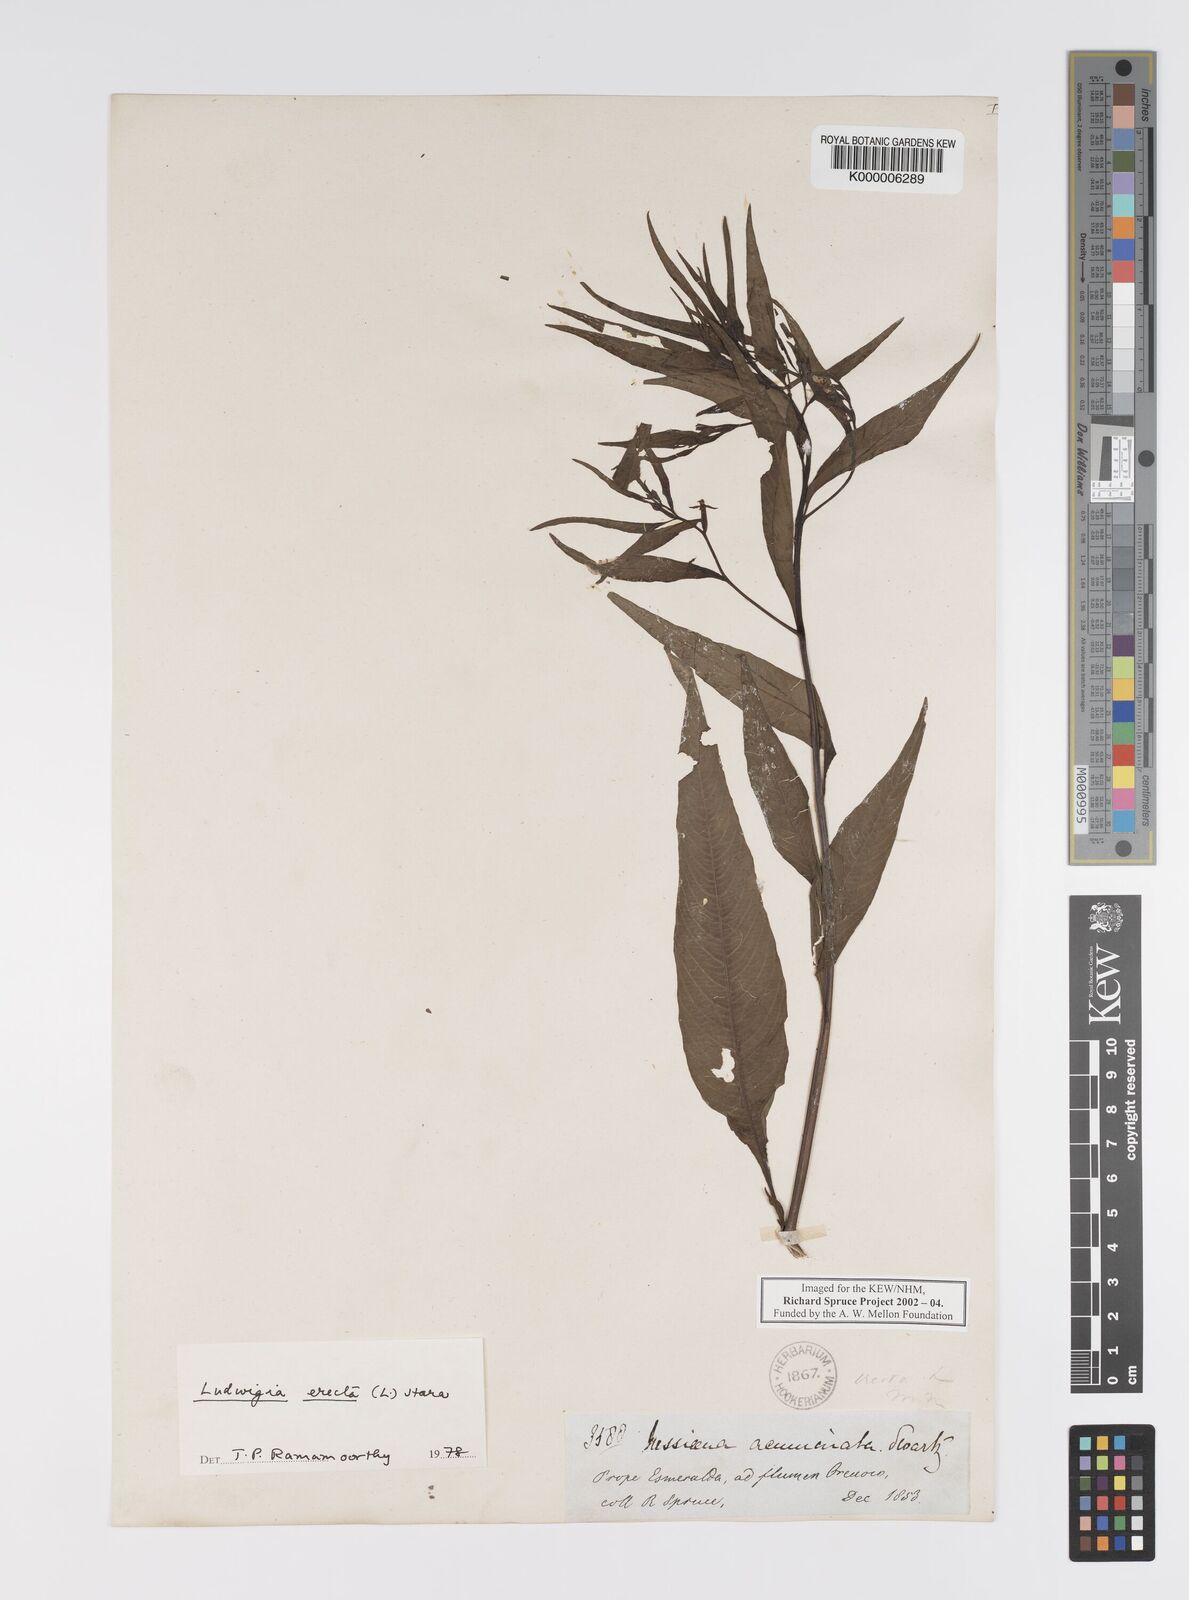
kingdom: Plantae
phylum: Tracheophyta
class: Magnoliopsida
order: Myrtales
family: Onagraceae
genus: Ludwigia
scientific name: Ludwigia erecta
